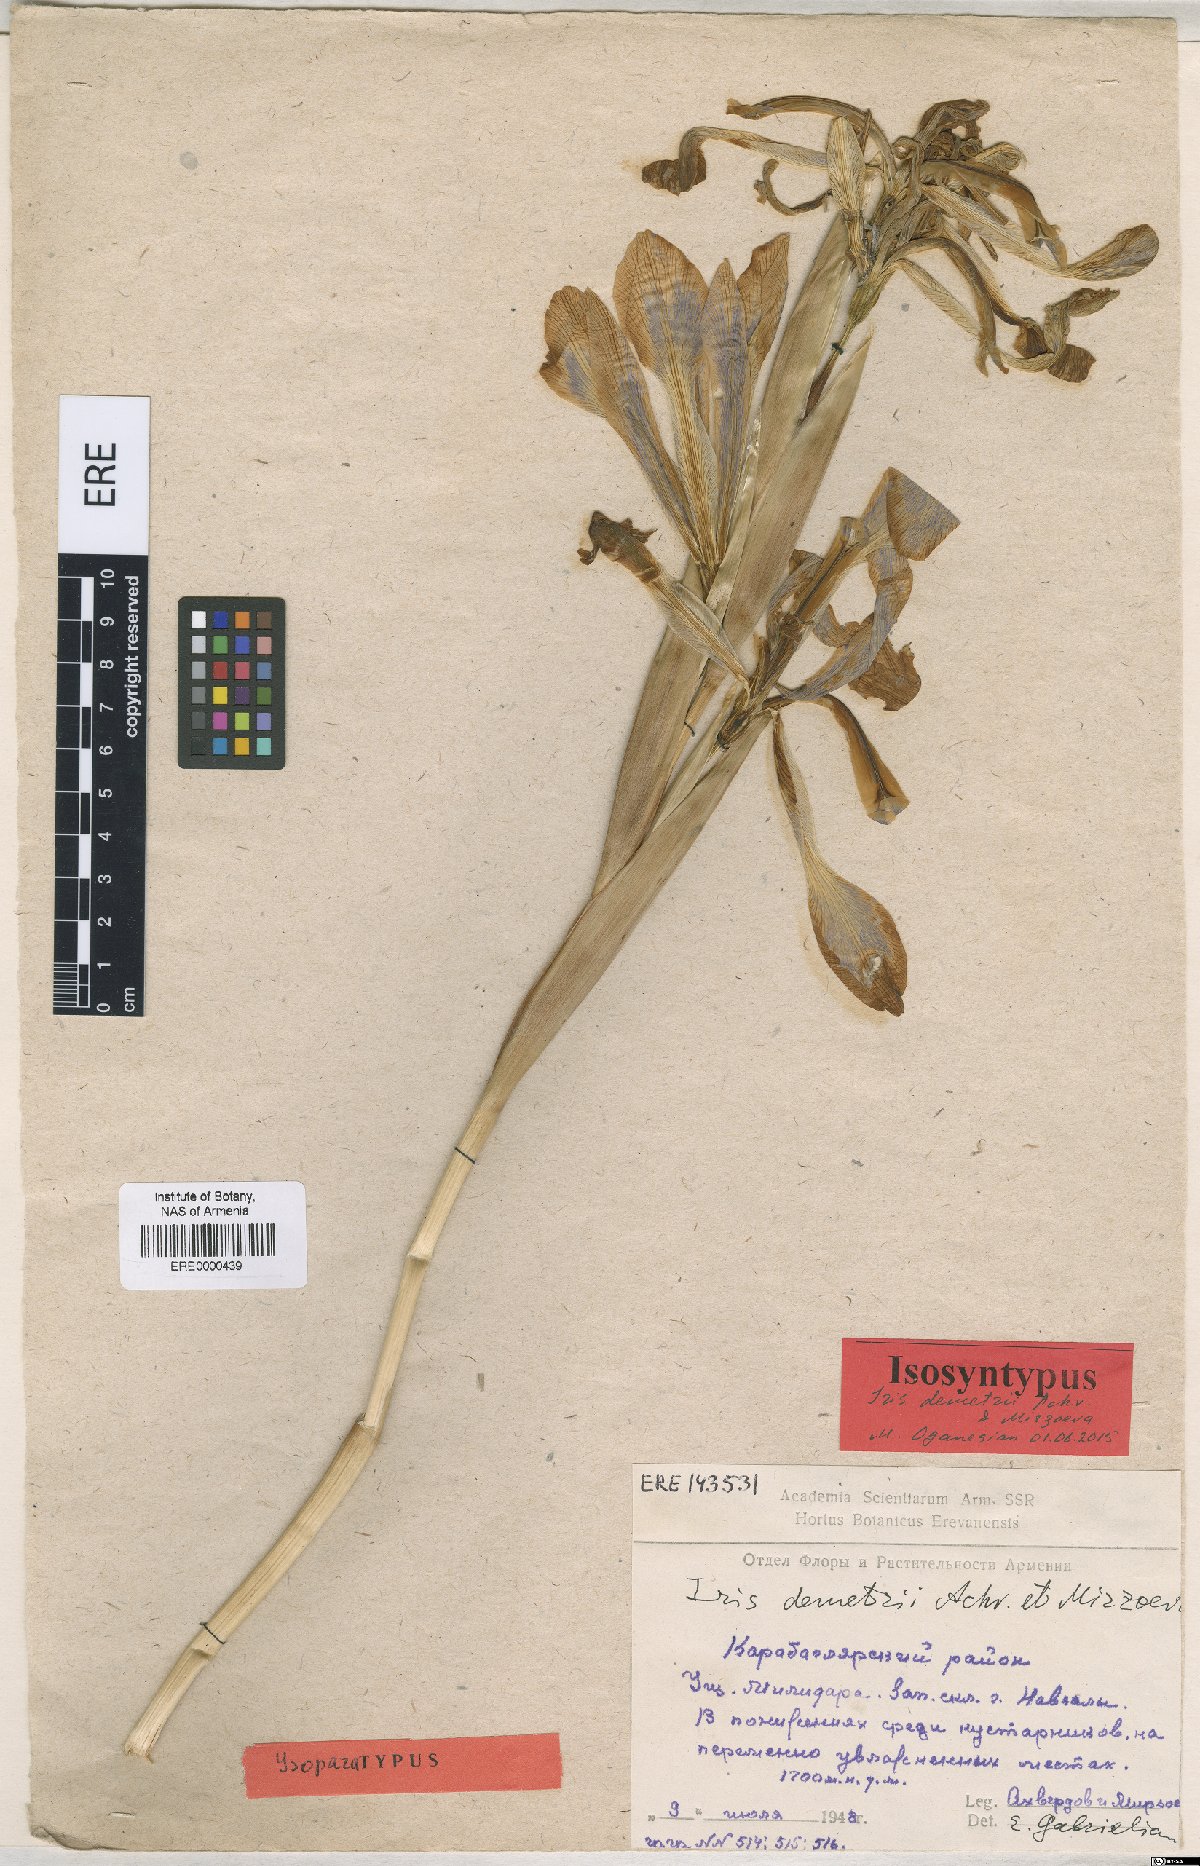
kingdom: Plantae
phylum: Tracheophyta
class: Liliopsida
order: Asparagales
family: Iridaceae
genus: Iris
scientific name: Iris spuria
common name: Blue iris
